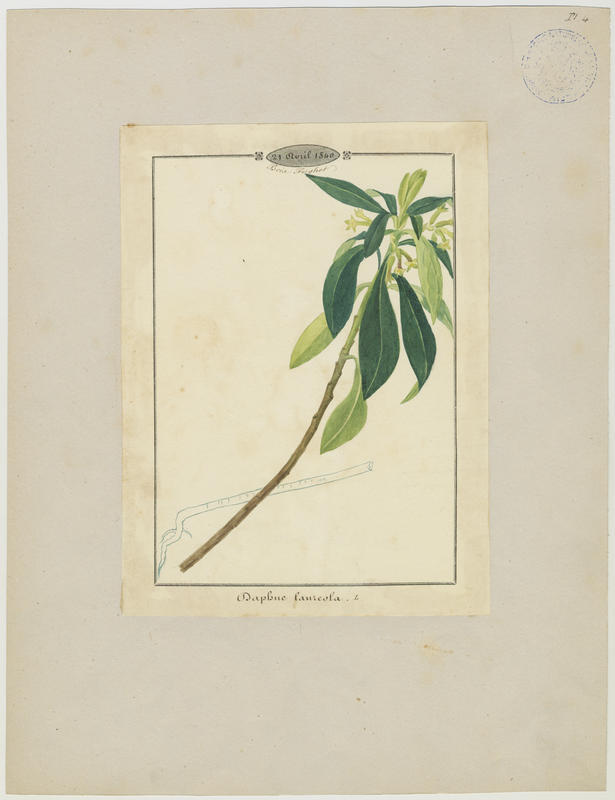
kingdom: Plantae
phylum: Tracheophyta
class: Magnoliopsida
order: Malvales
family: Thymelaeaceae
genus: Daphne
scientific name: Daphne laureola
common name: Spurge-laurel
